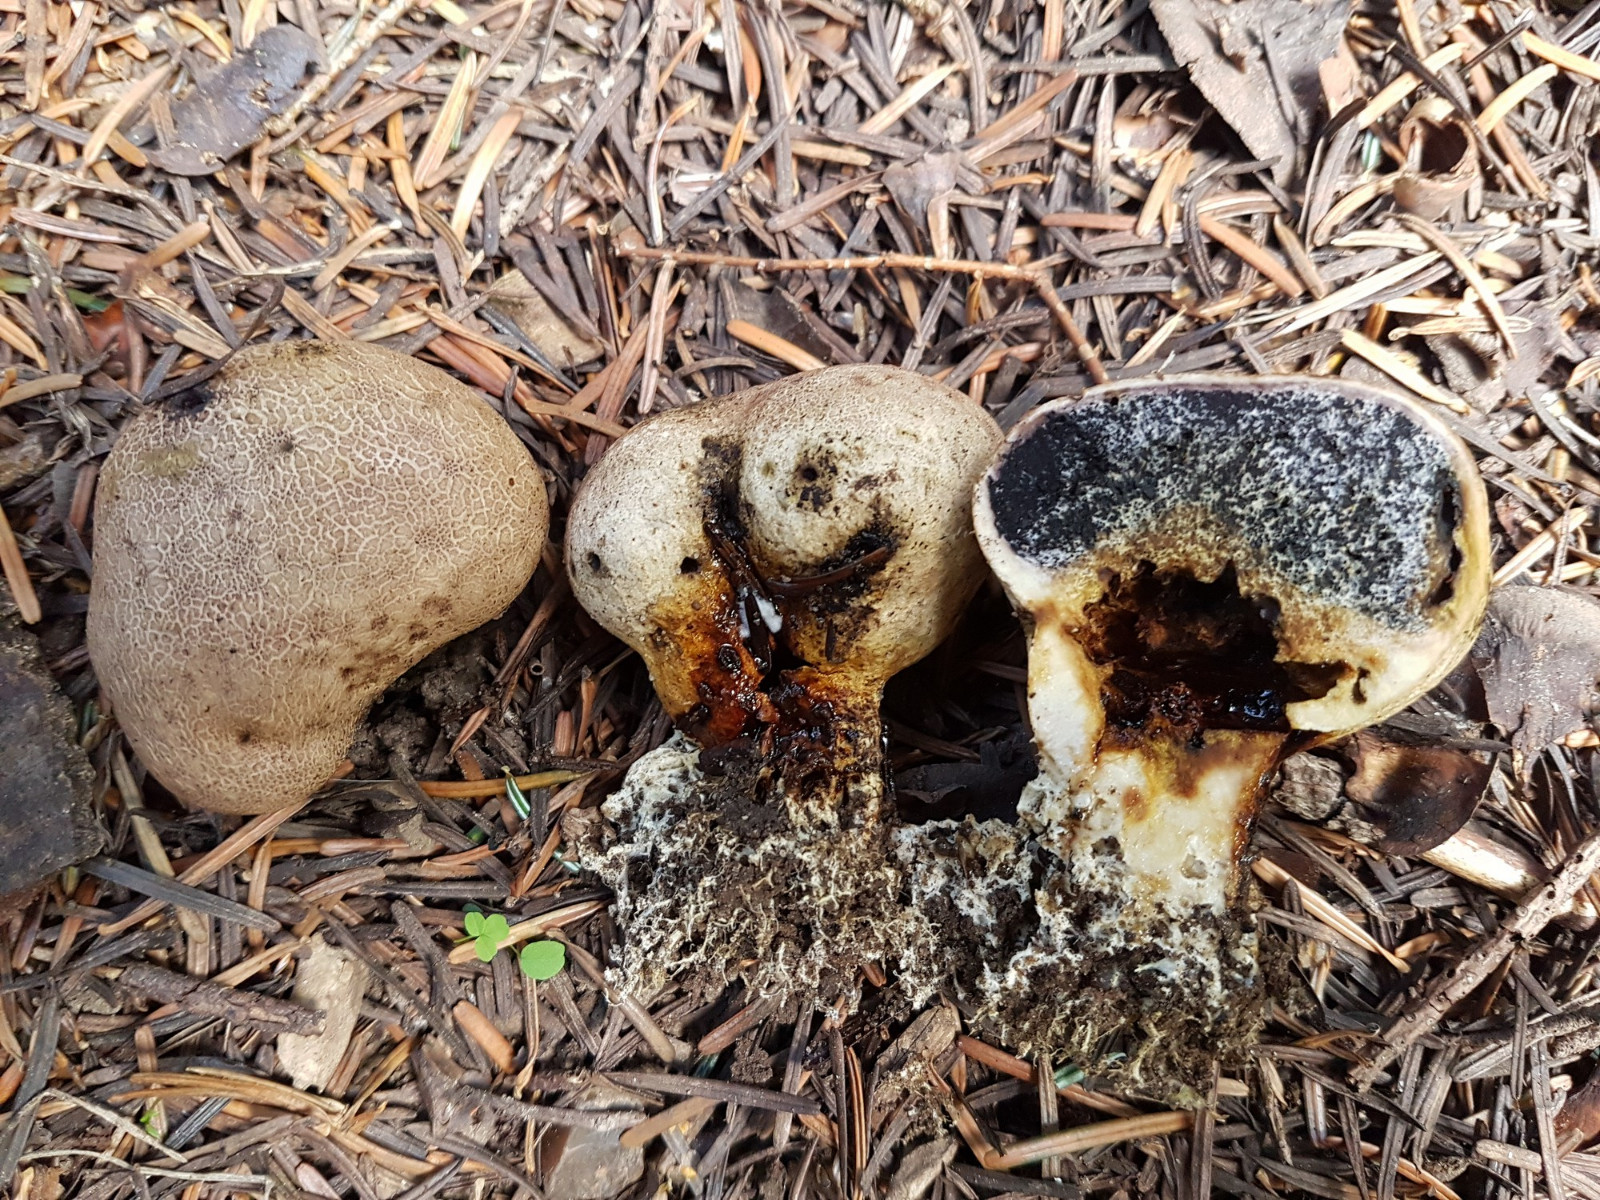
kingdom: Fungi
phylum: Basidiomycota
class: Agaricomycetes
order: Boletales
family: Sclerodermataceae
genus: Scleroderma
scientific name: Scleroderma verrucosum
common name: stilket bruskbold
